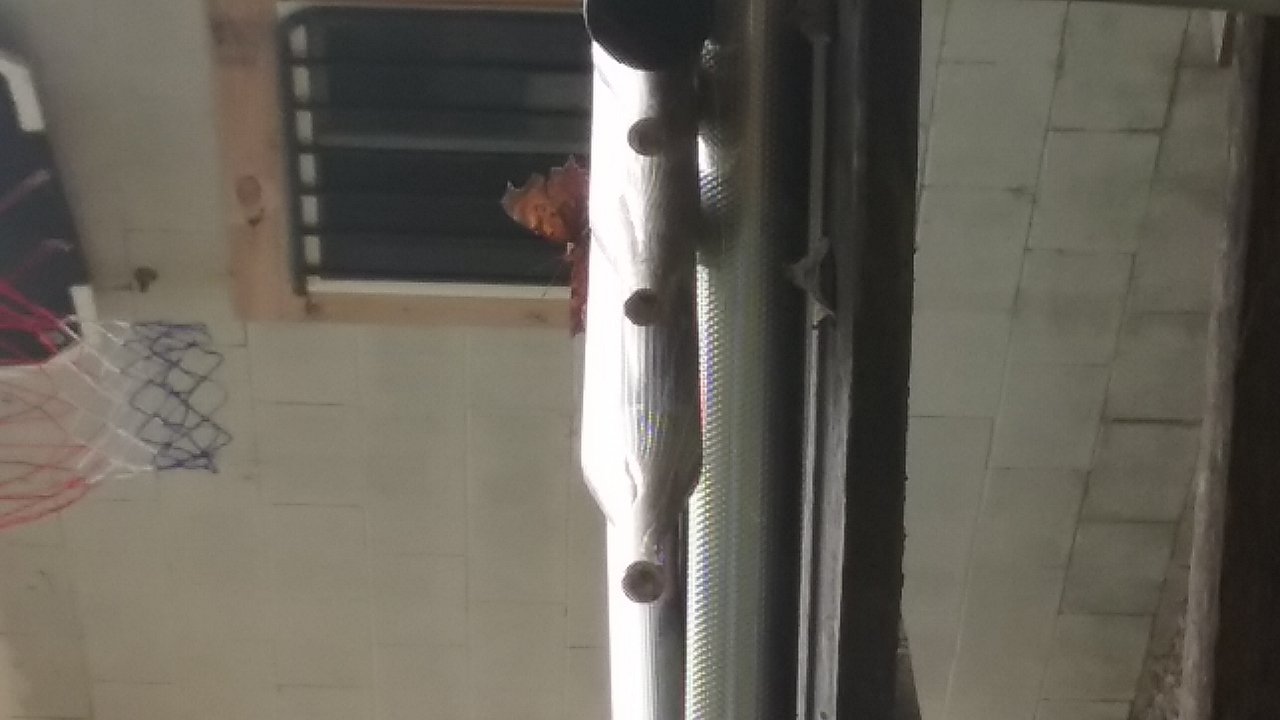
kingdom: Animalia
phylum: Arthropoda
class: Insecta
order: Lepidoptera
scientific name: Lepidoptera
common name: Butterflies
